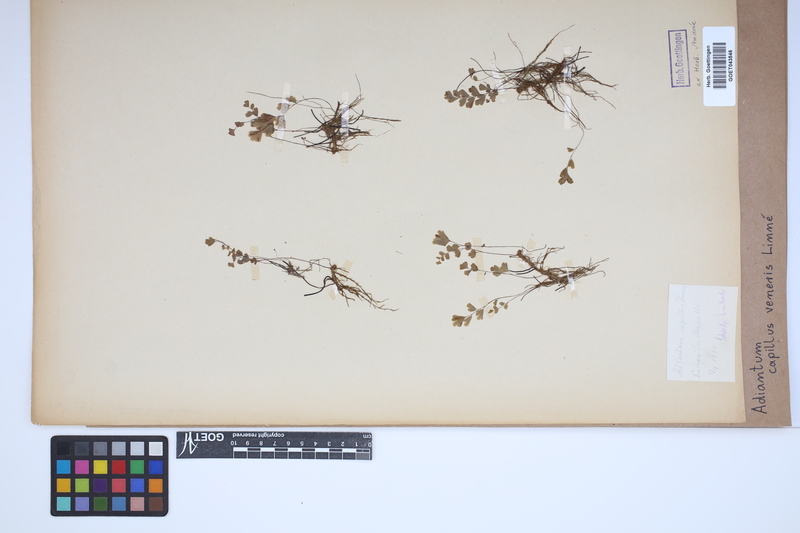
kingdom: Plantae
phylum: Tracheophyta
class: Polypodiopsida
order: Polypodiales
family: Pteridaceae
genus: Adiantum
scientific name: Adiantum capillus-veneris
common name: Maidenhair fern
